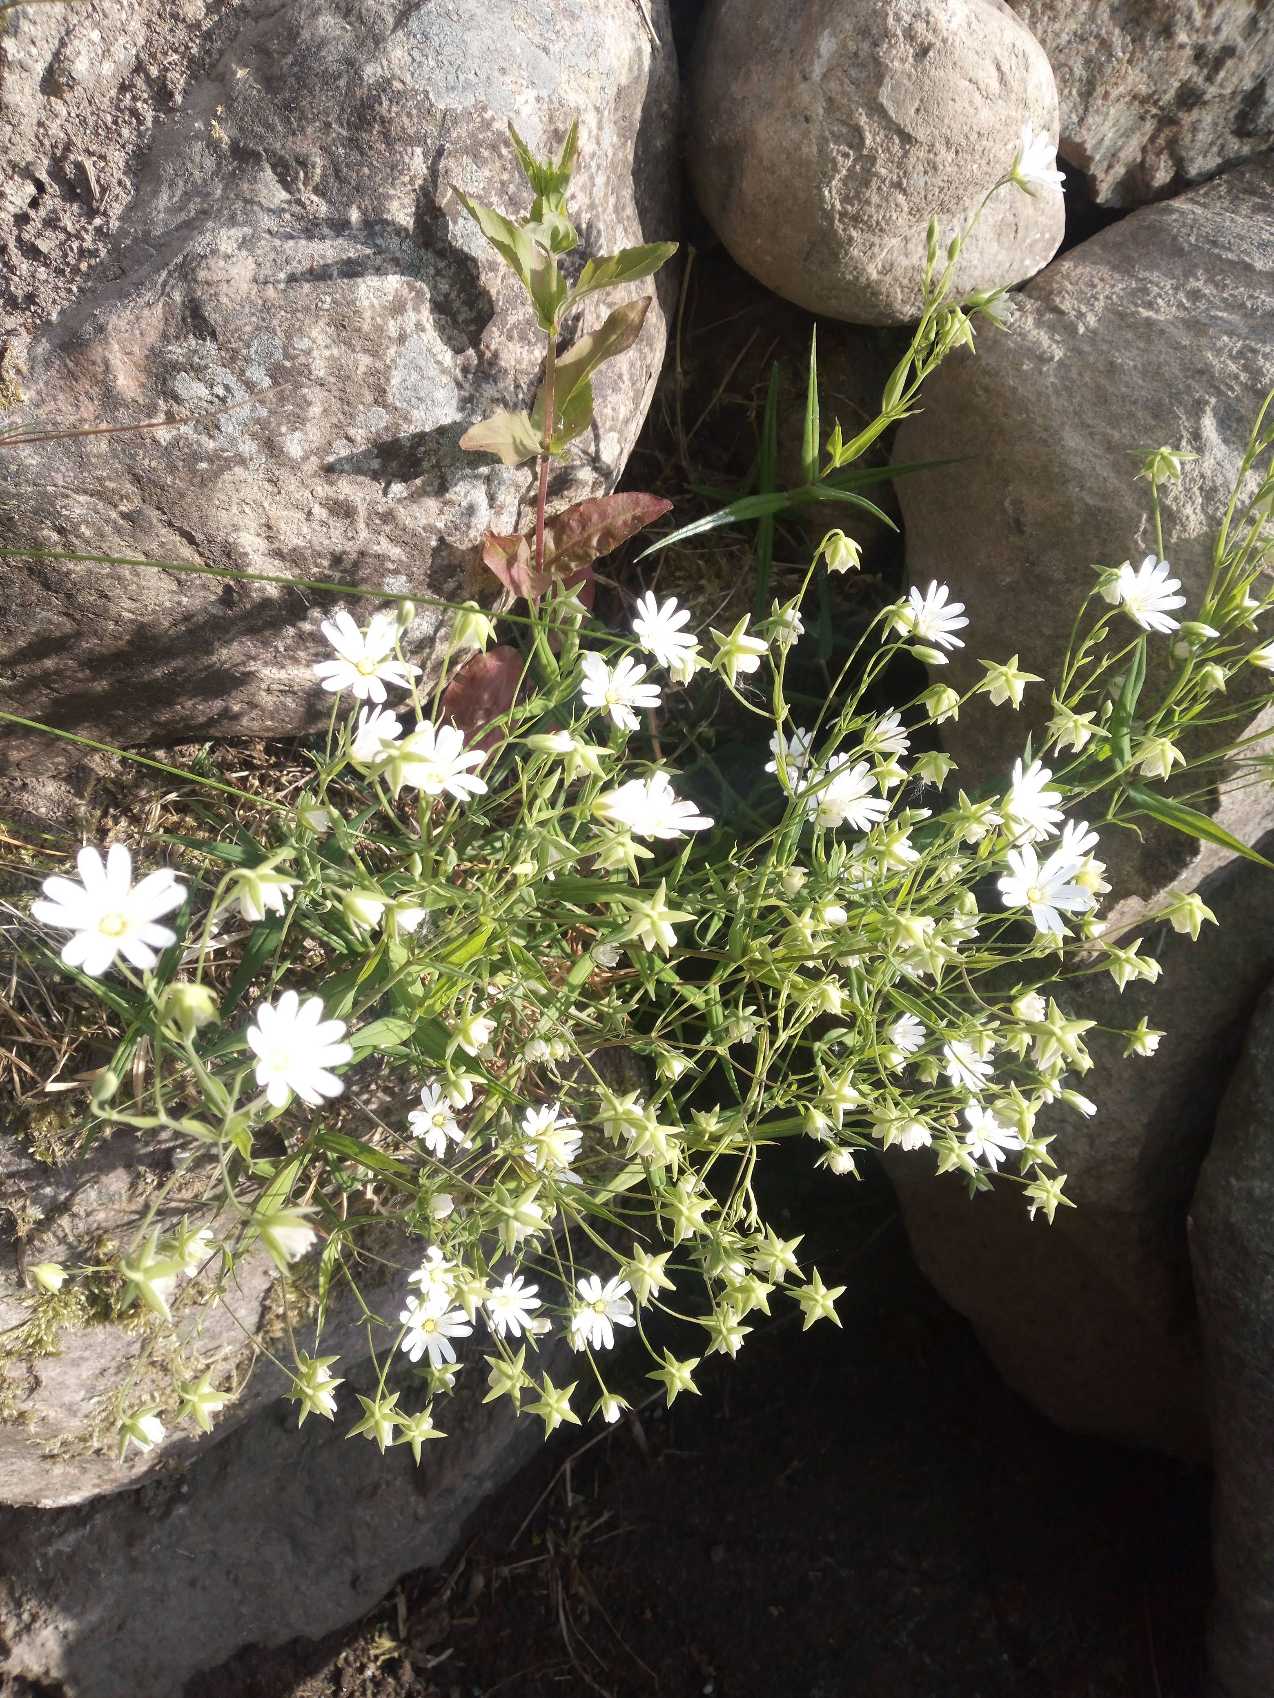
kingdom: Plantae
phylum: Tracheophyta
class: Magnoliopsida
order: Caryophyllales
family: Caryophyllaceae
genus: Rabelera
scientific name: Rabelera holostea
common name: Stor fladstjerne
